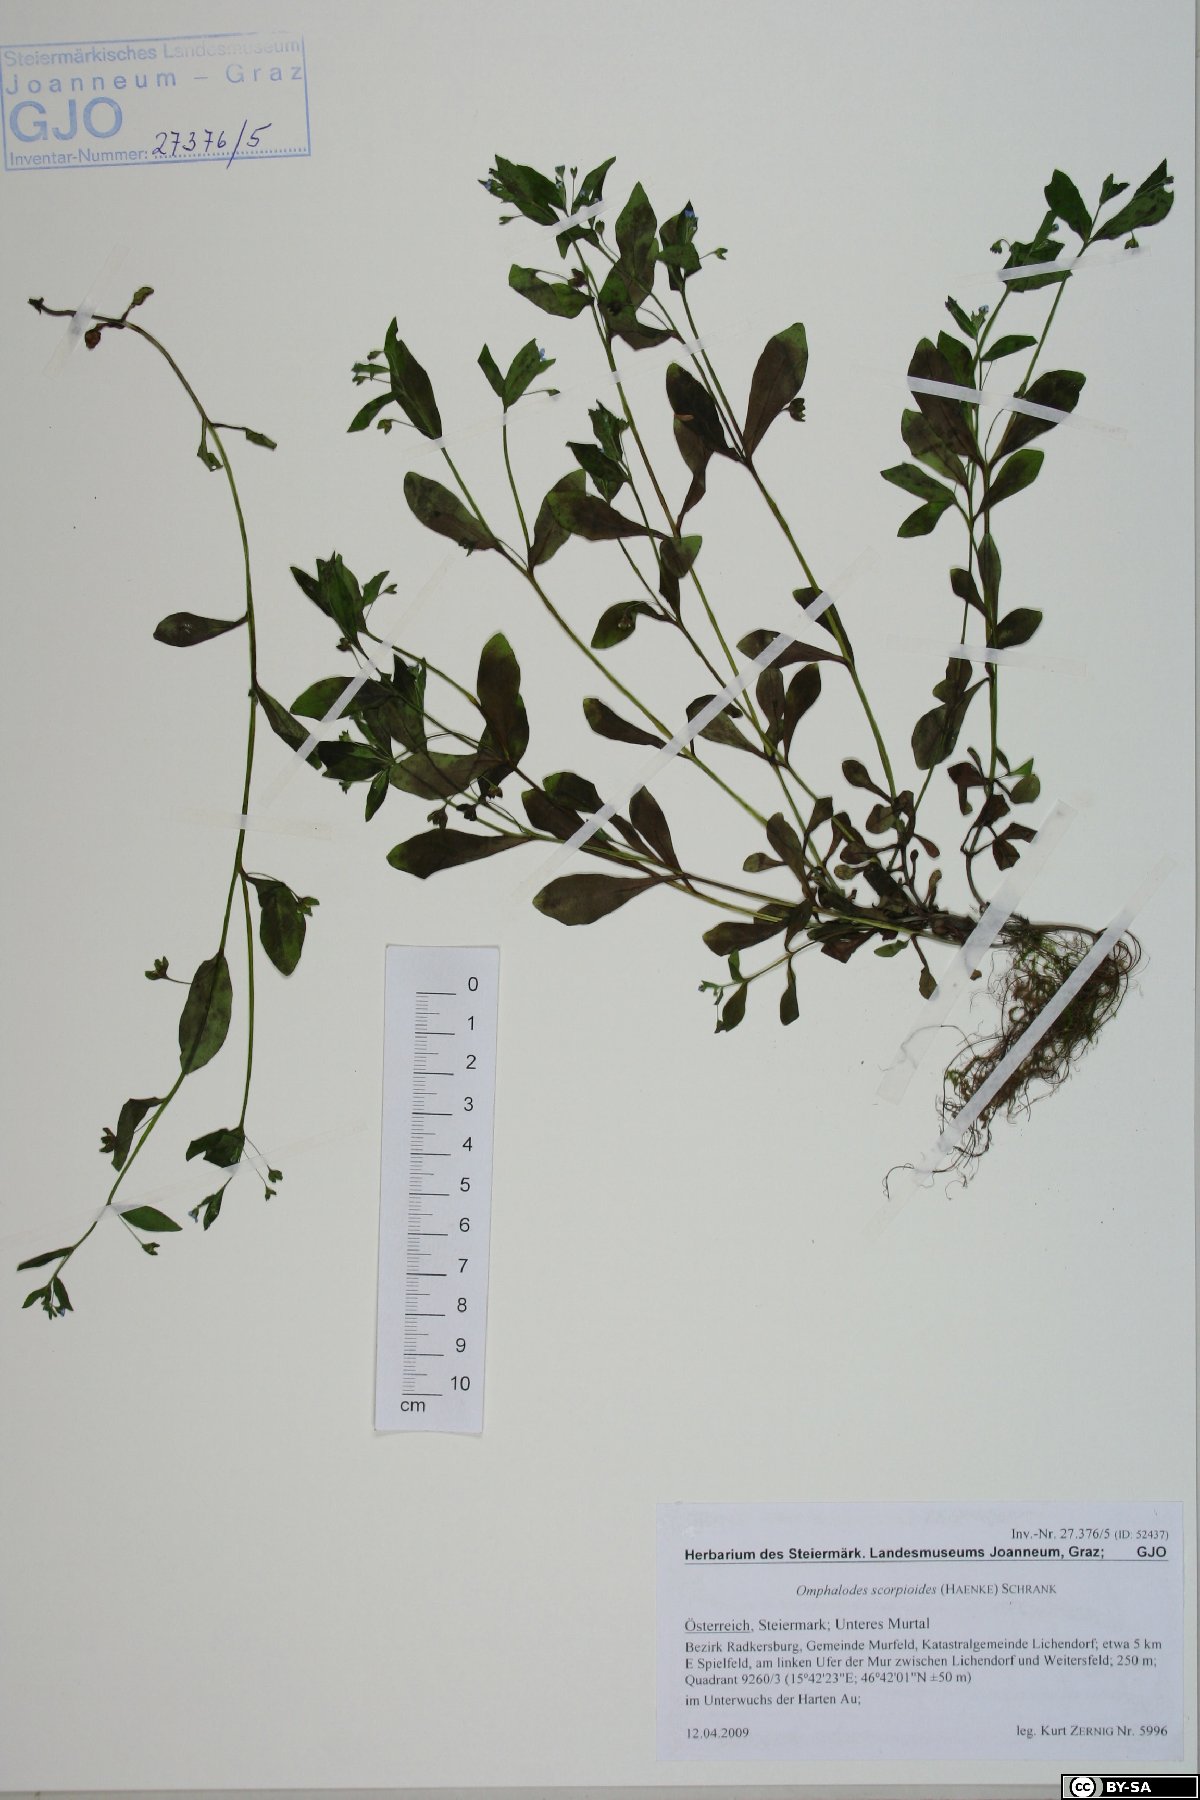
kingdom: Plantae
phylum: Tracheophyta
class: Magnoliopsida
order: Boraginales
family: Boraginaceae
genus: Memoremea
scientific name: Memoremea scorpioides
